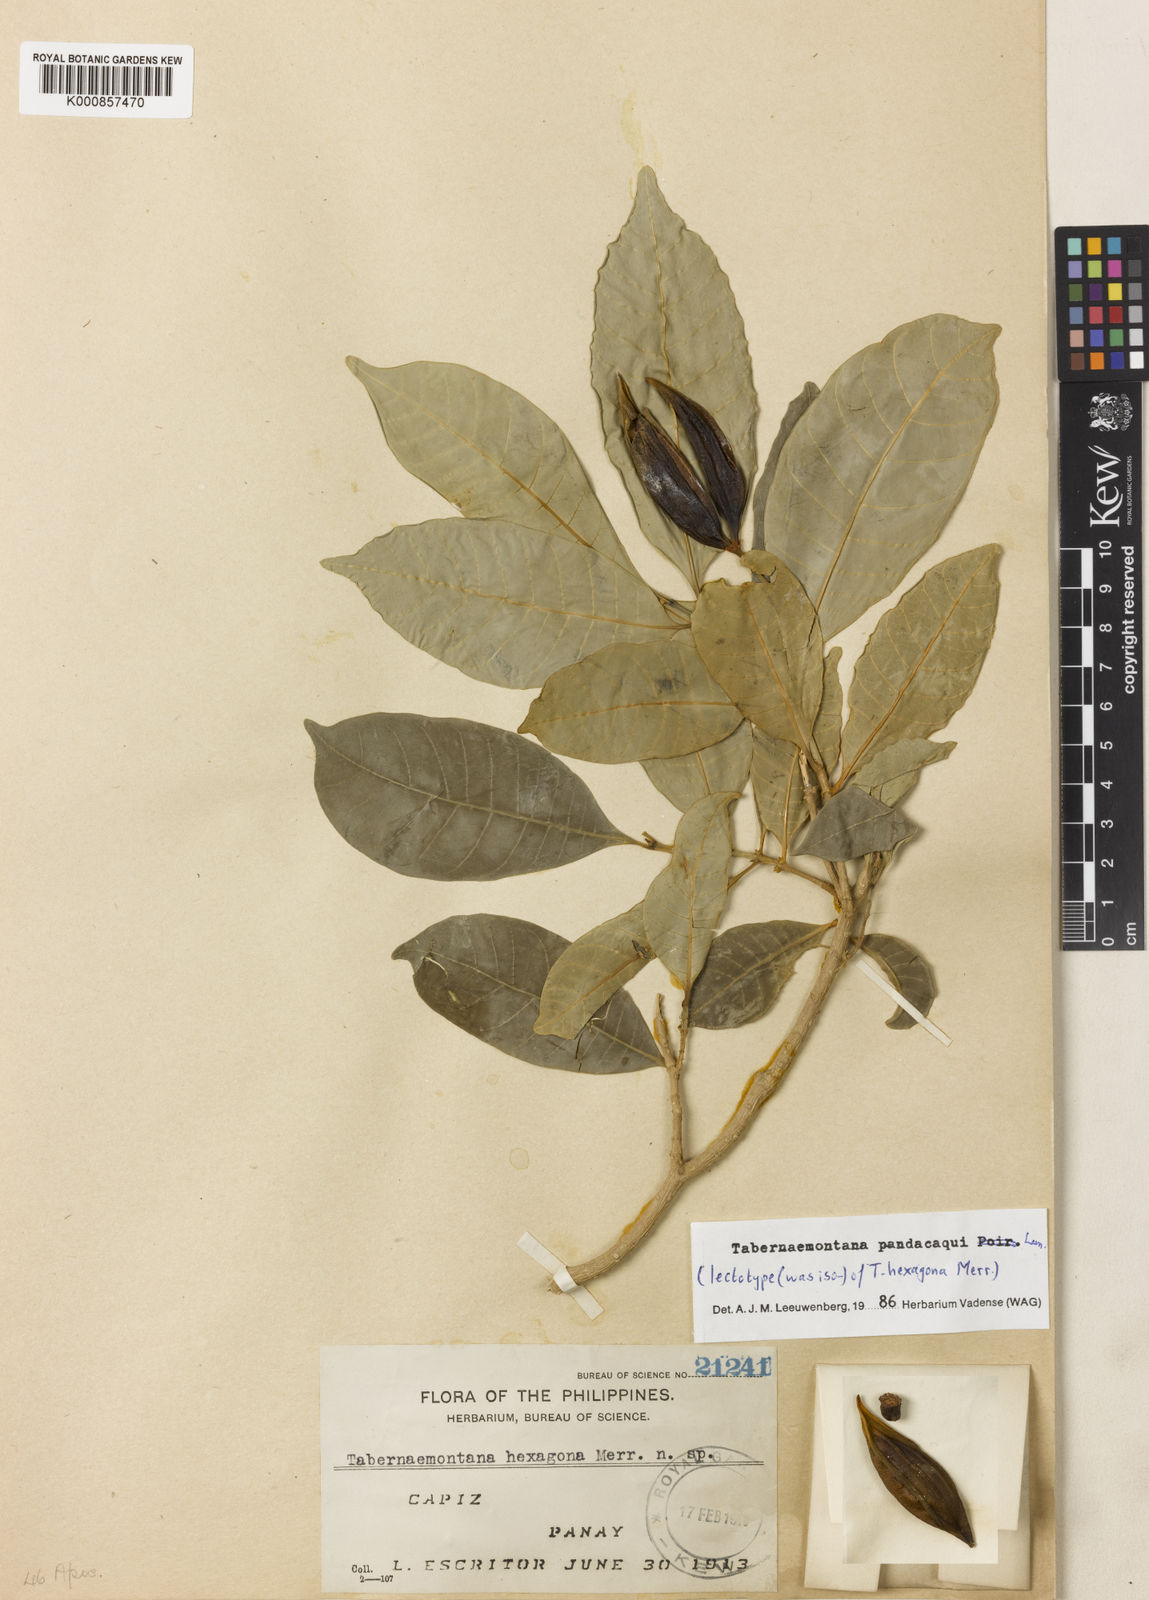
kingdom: Plantae
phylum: Tracheophyta
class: Magnoliopsida
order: Gentianales
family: Apocynaceae
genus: Tabernaemontana
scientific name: Tabernaemontana
